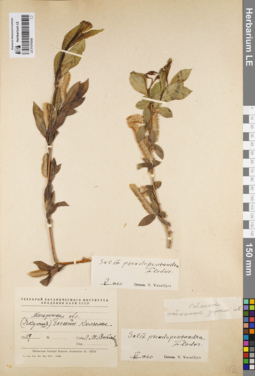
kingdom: Plantae
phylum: Tracheophyta
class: Magnoliopsida
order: Malpighiales
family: Salicaceae
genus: Salix
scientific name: Salix pseudopentandra
